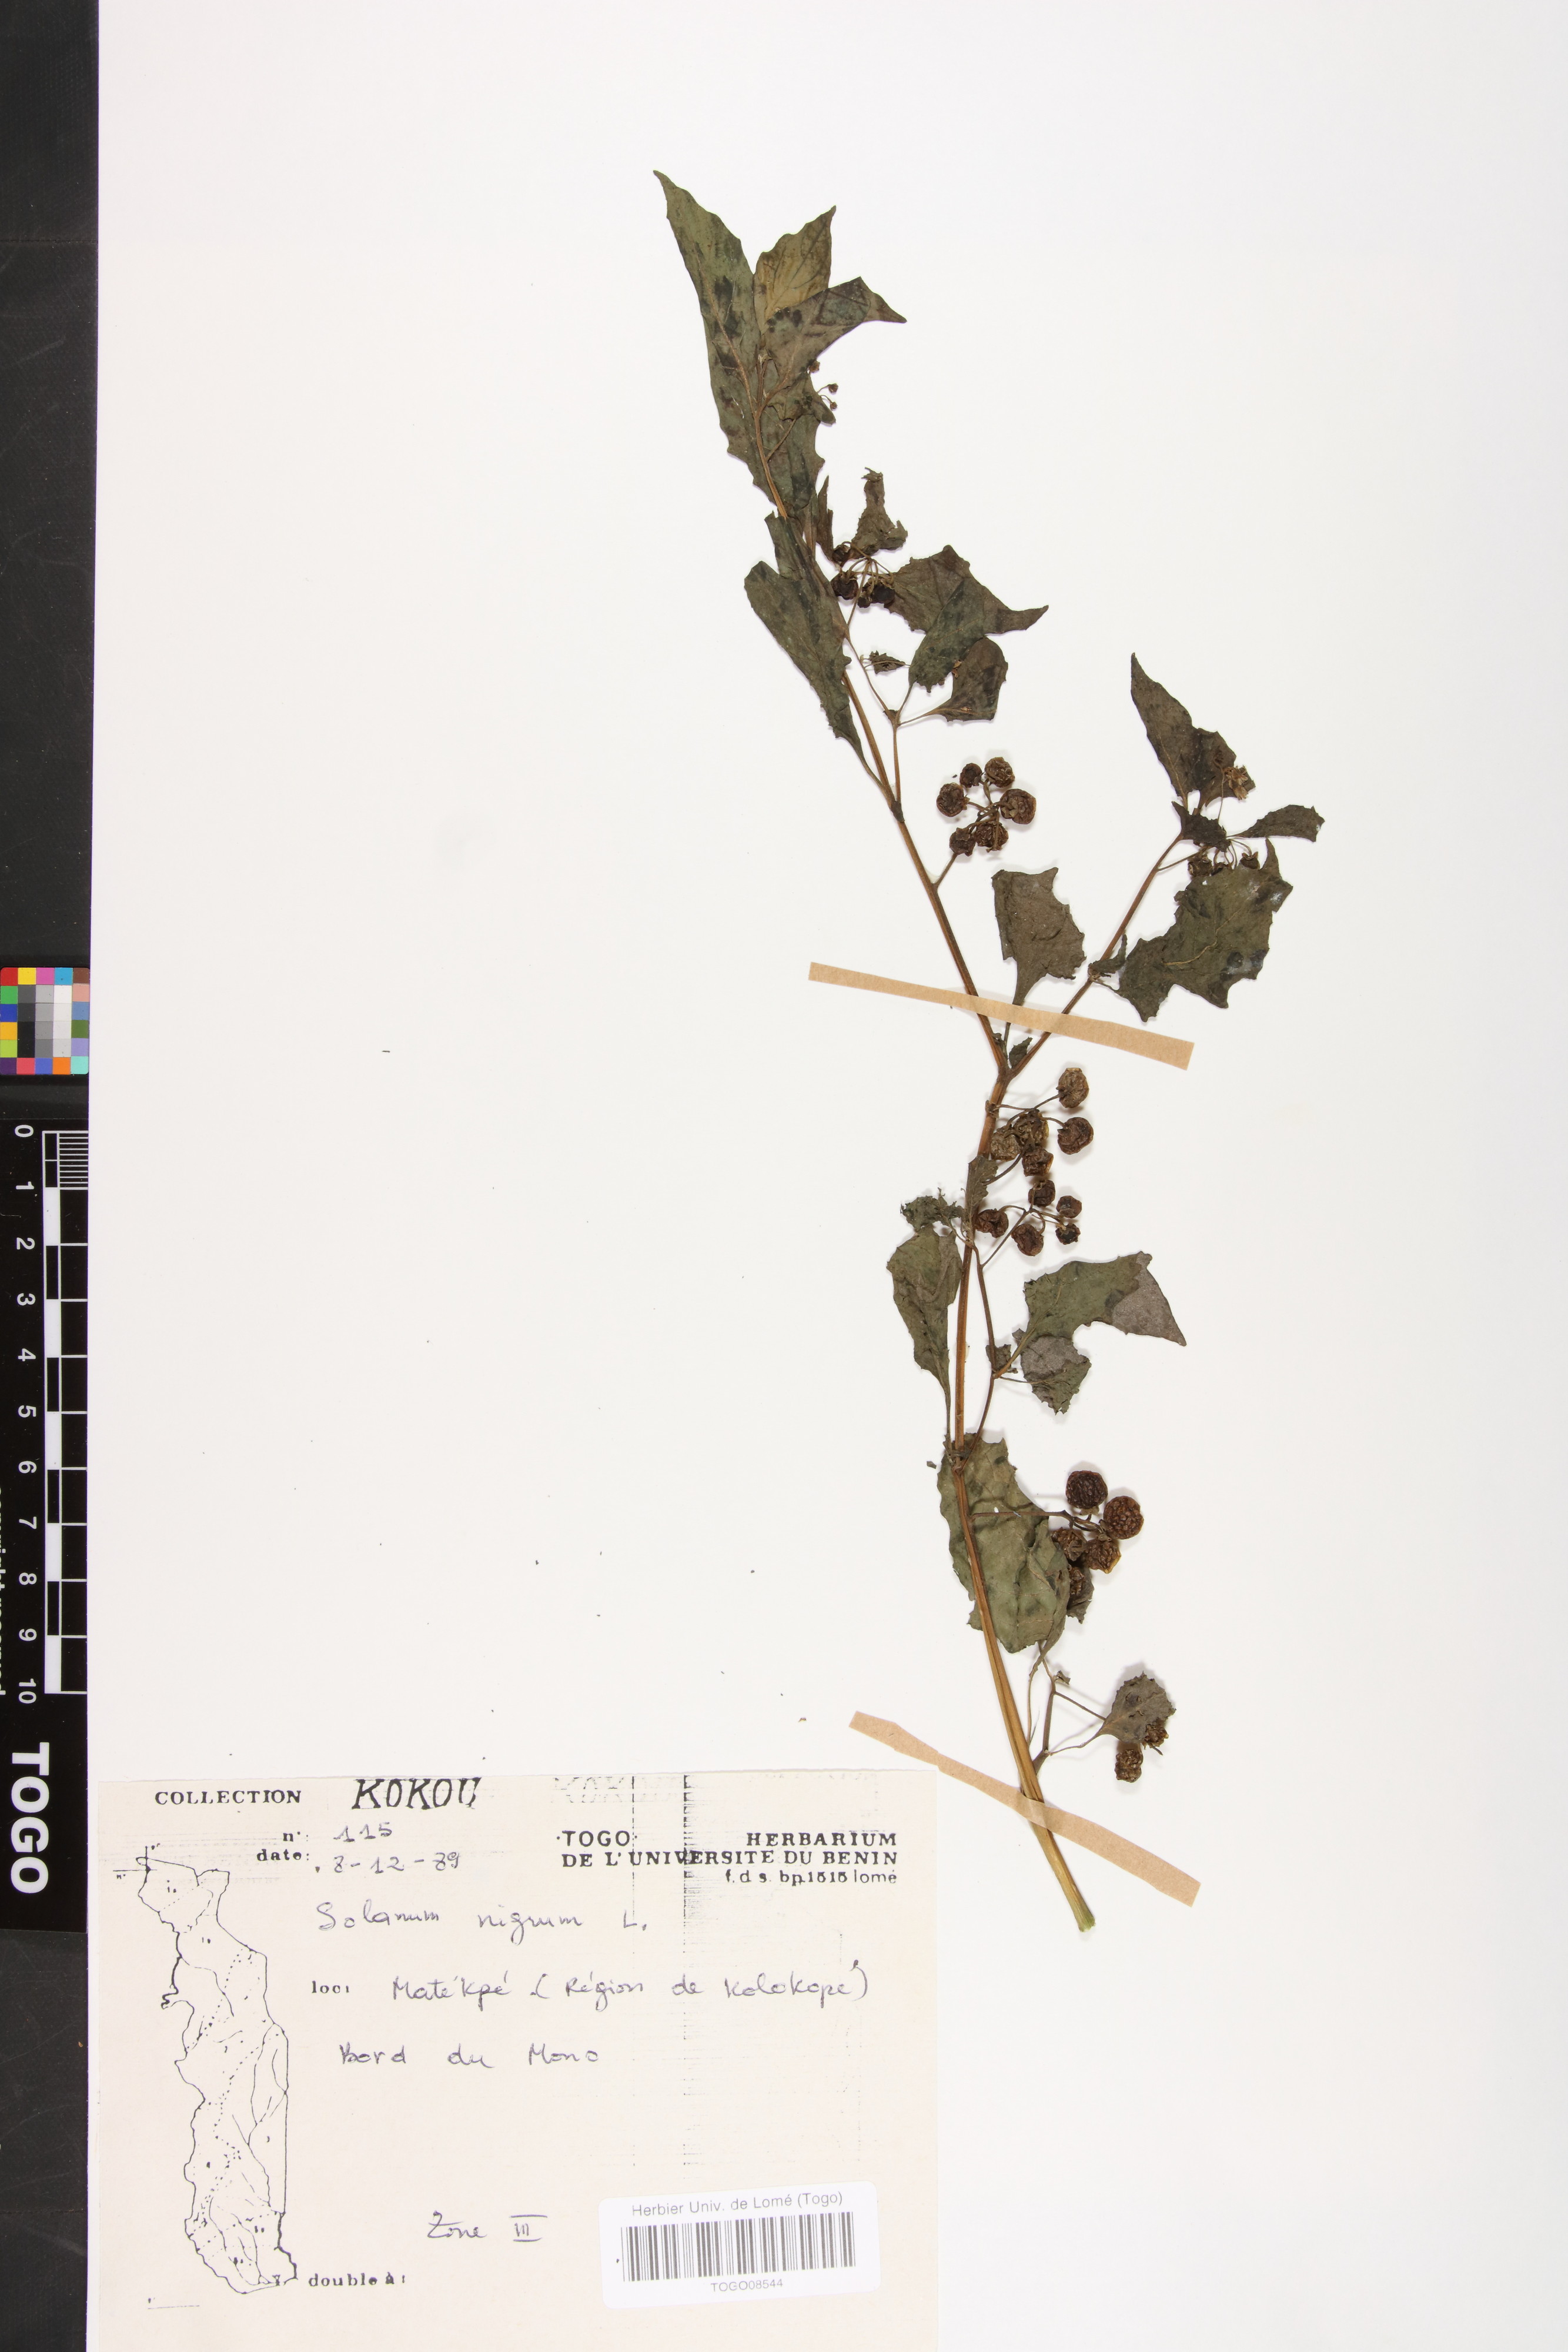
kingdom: Plantae
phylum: Tracheophyta
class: Magnoliopsida
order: Solanales
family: Solanaceae
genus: Solanum
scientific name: Solanum nigrum
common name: Black nightshade
